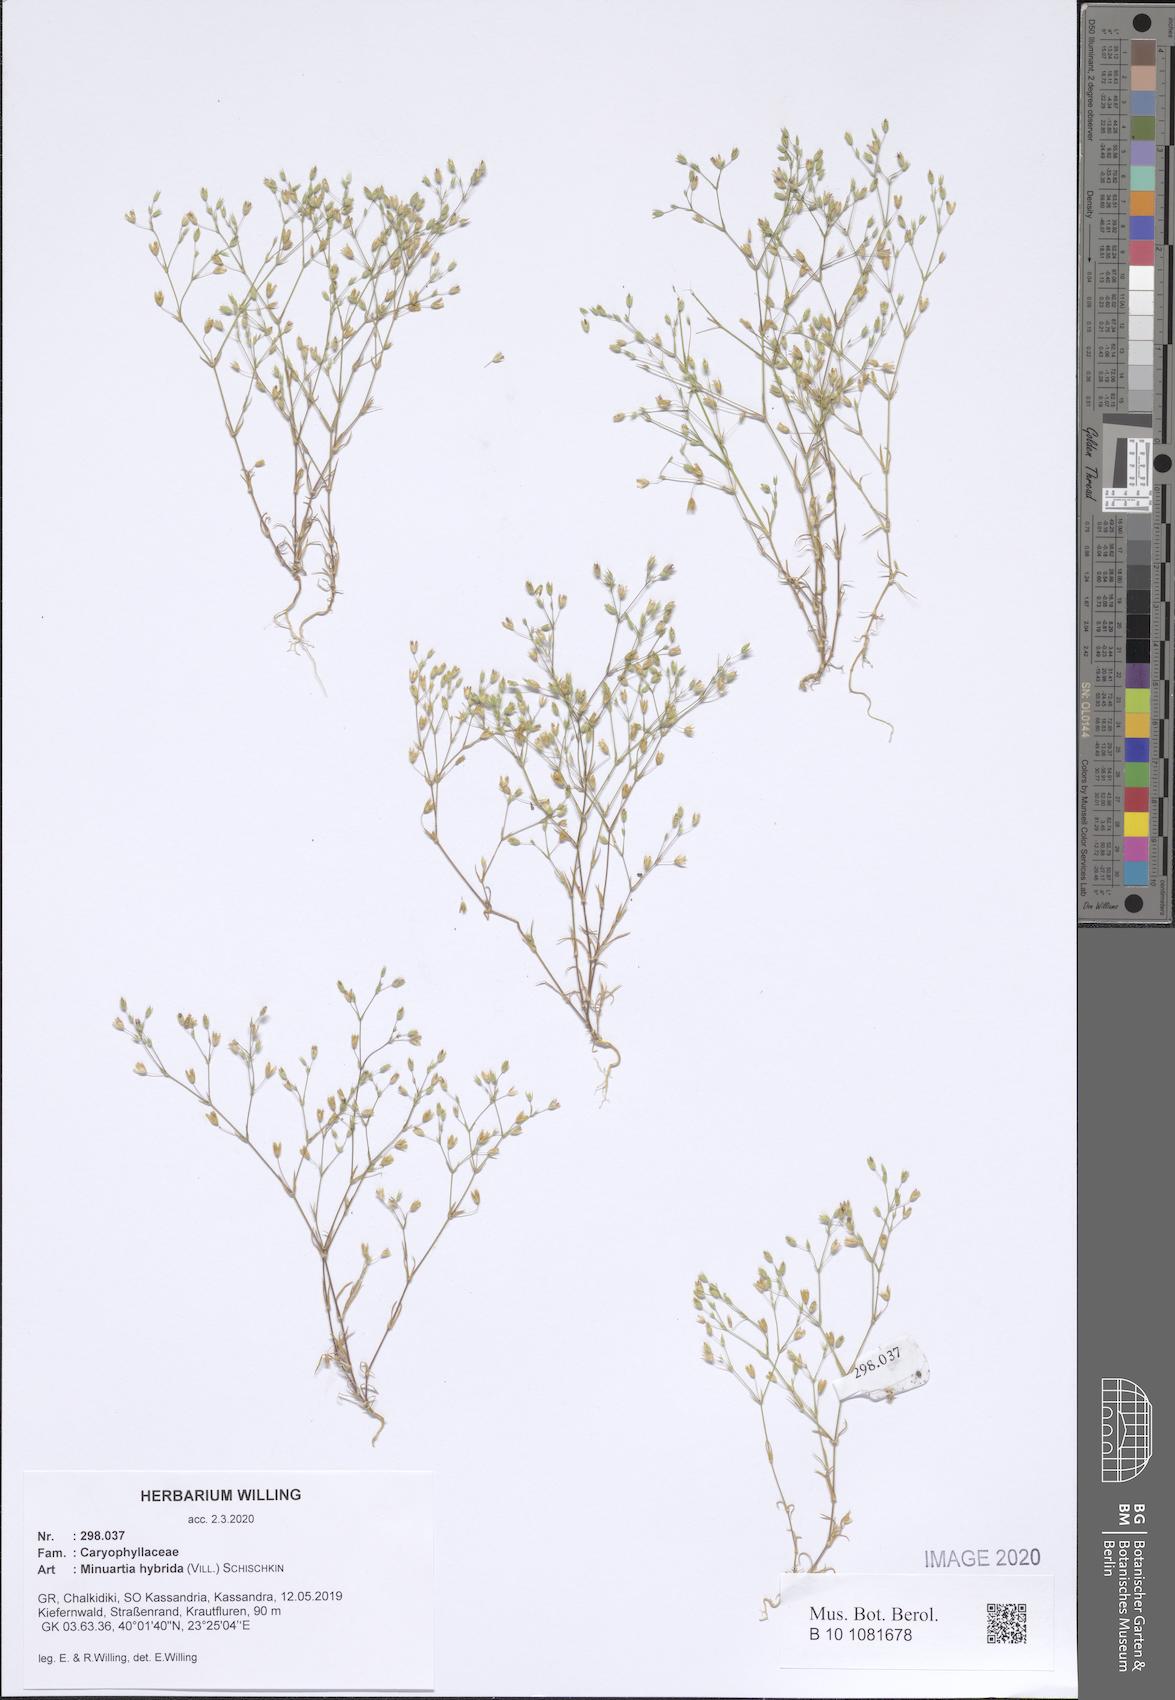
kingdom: Plantae
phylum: Tracheophyta
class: Magnoliopsida
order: Caryophyllales
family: Caryophyllaceae
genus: Sabulina
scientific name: Sabulina tenuifolia
